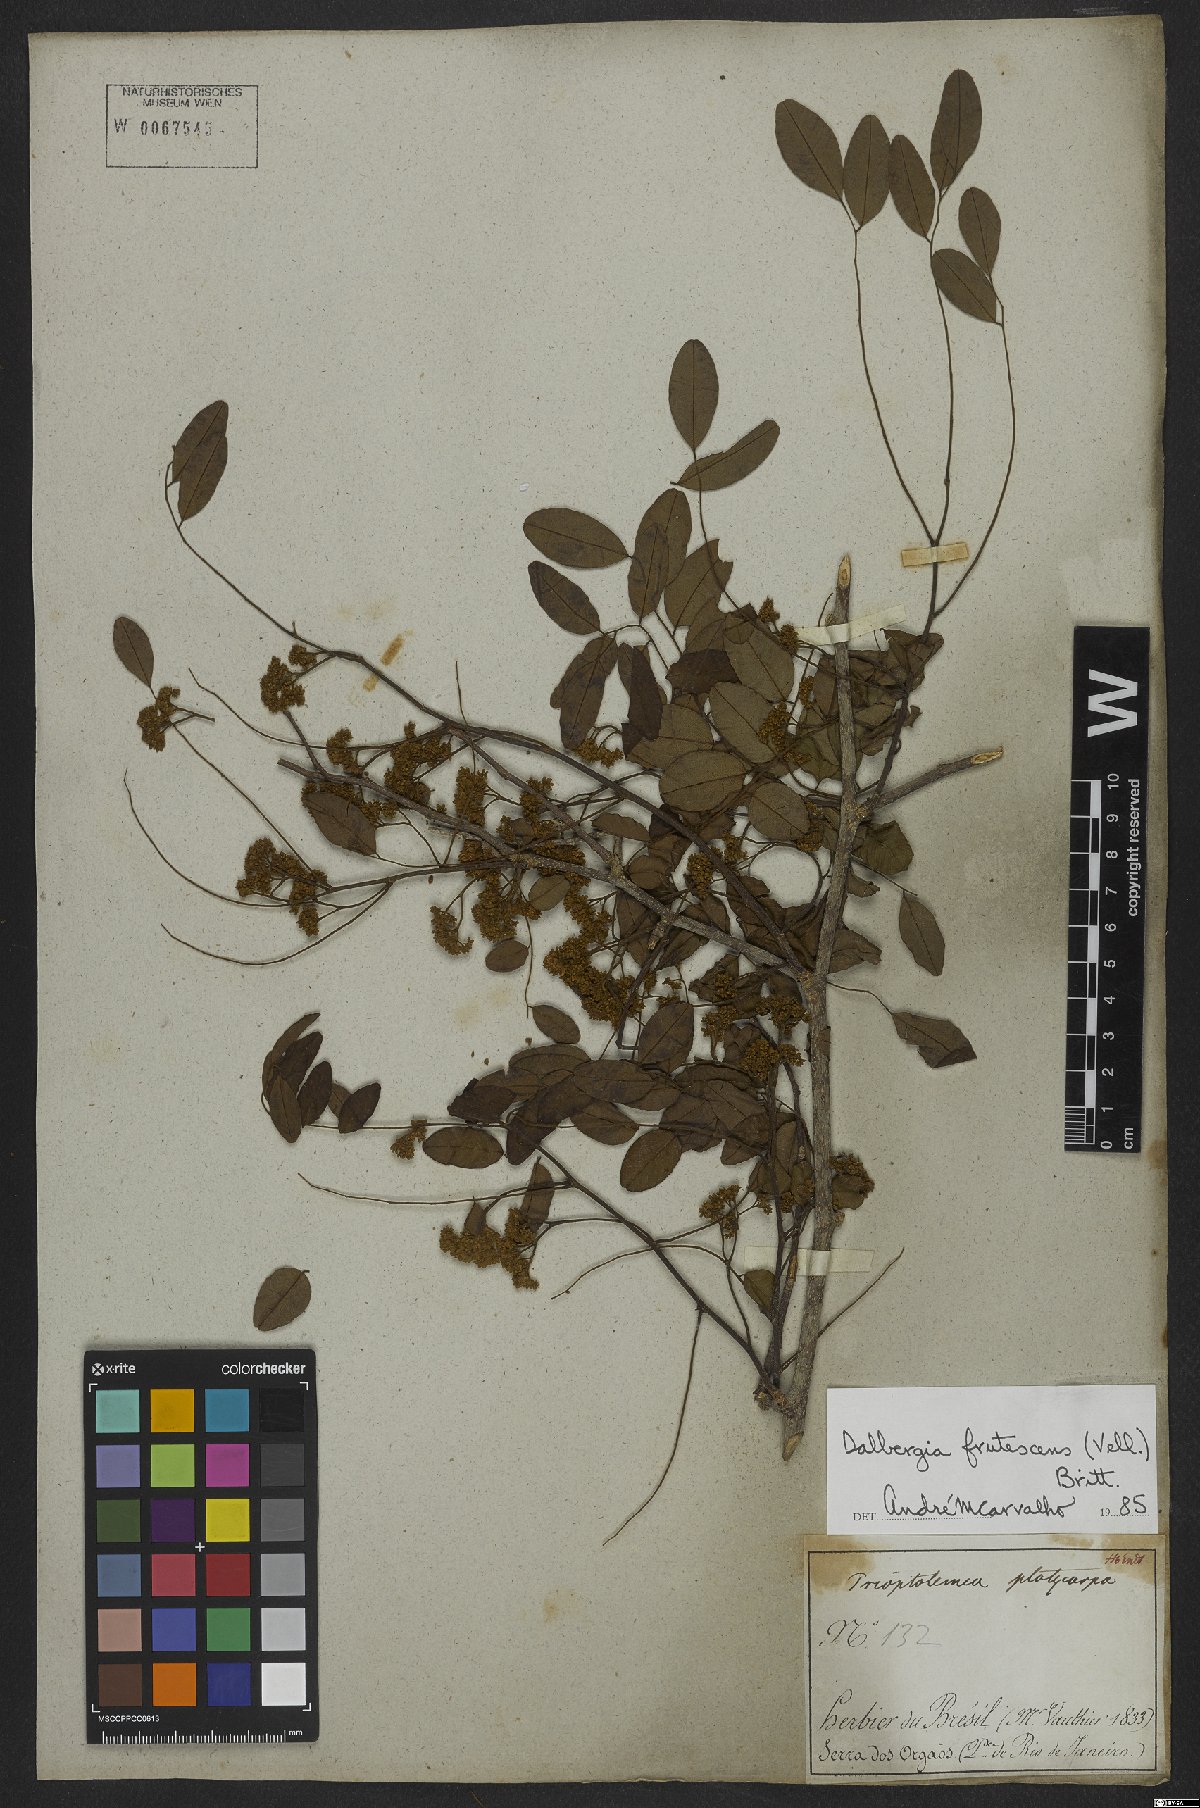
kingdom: Plantae
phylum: Tracheophyta
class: Magnoliopsida
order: Fabales
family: Fabaceae
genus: Dalbergia
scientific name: Dalbergia frutescens
